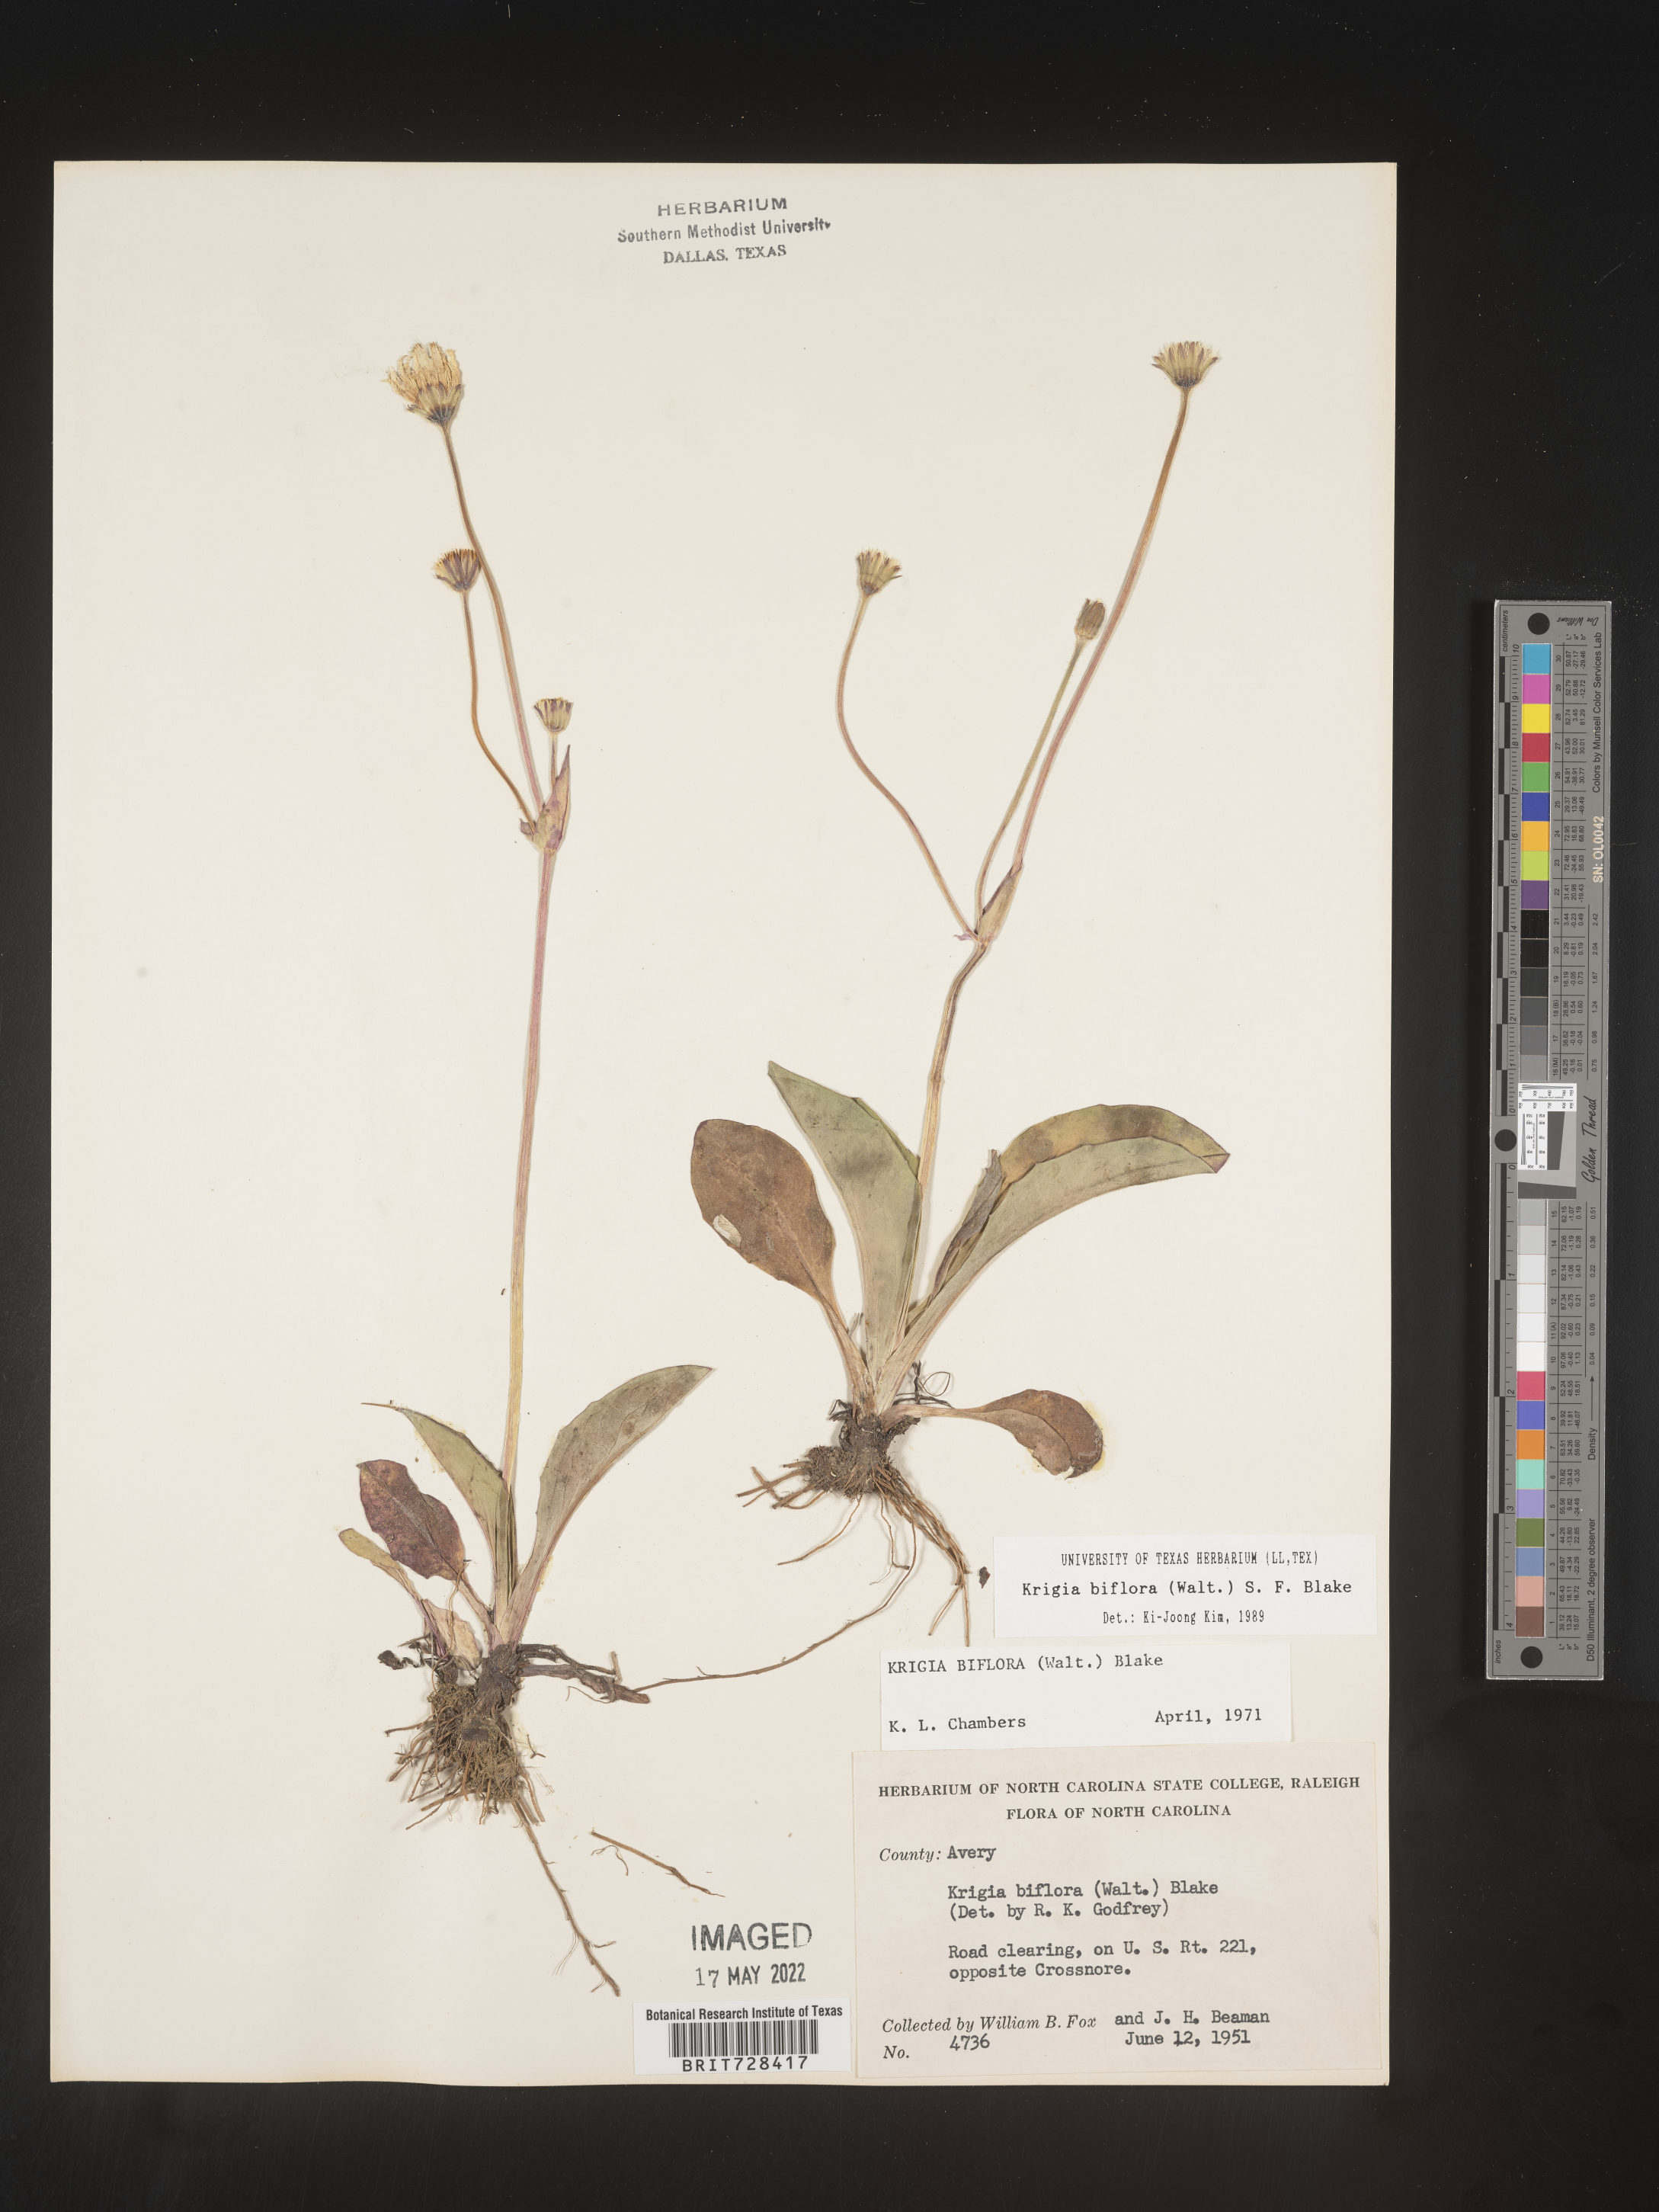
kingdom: Plantae
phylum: Tracheophyta
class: Magnoliopsida
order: Asterales
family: Asteraceae
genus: Krigia
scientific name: Krigia biflora
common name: Orange dwarf-dandelion
